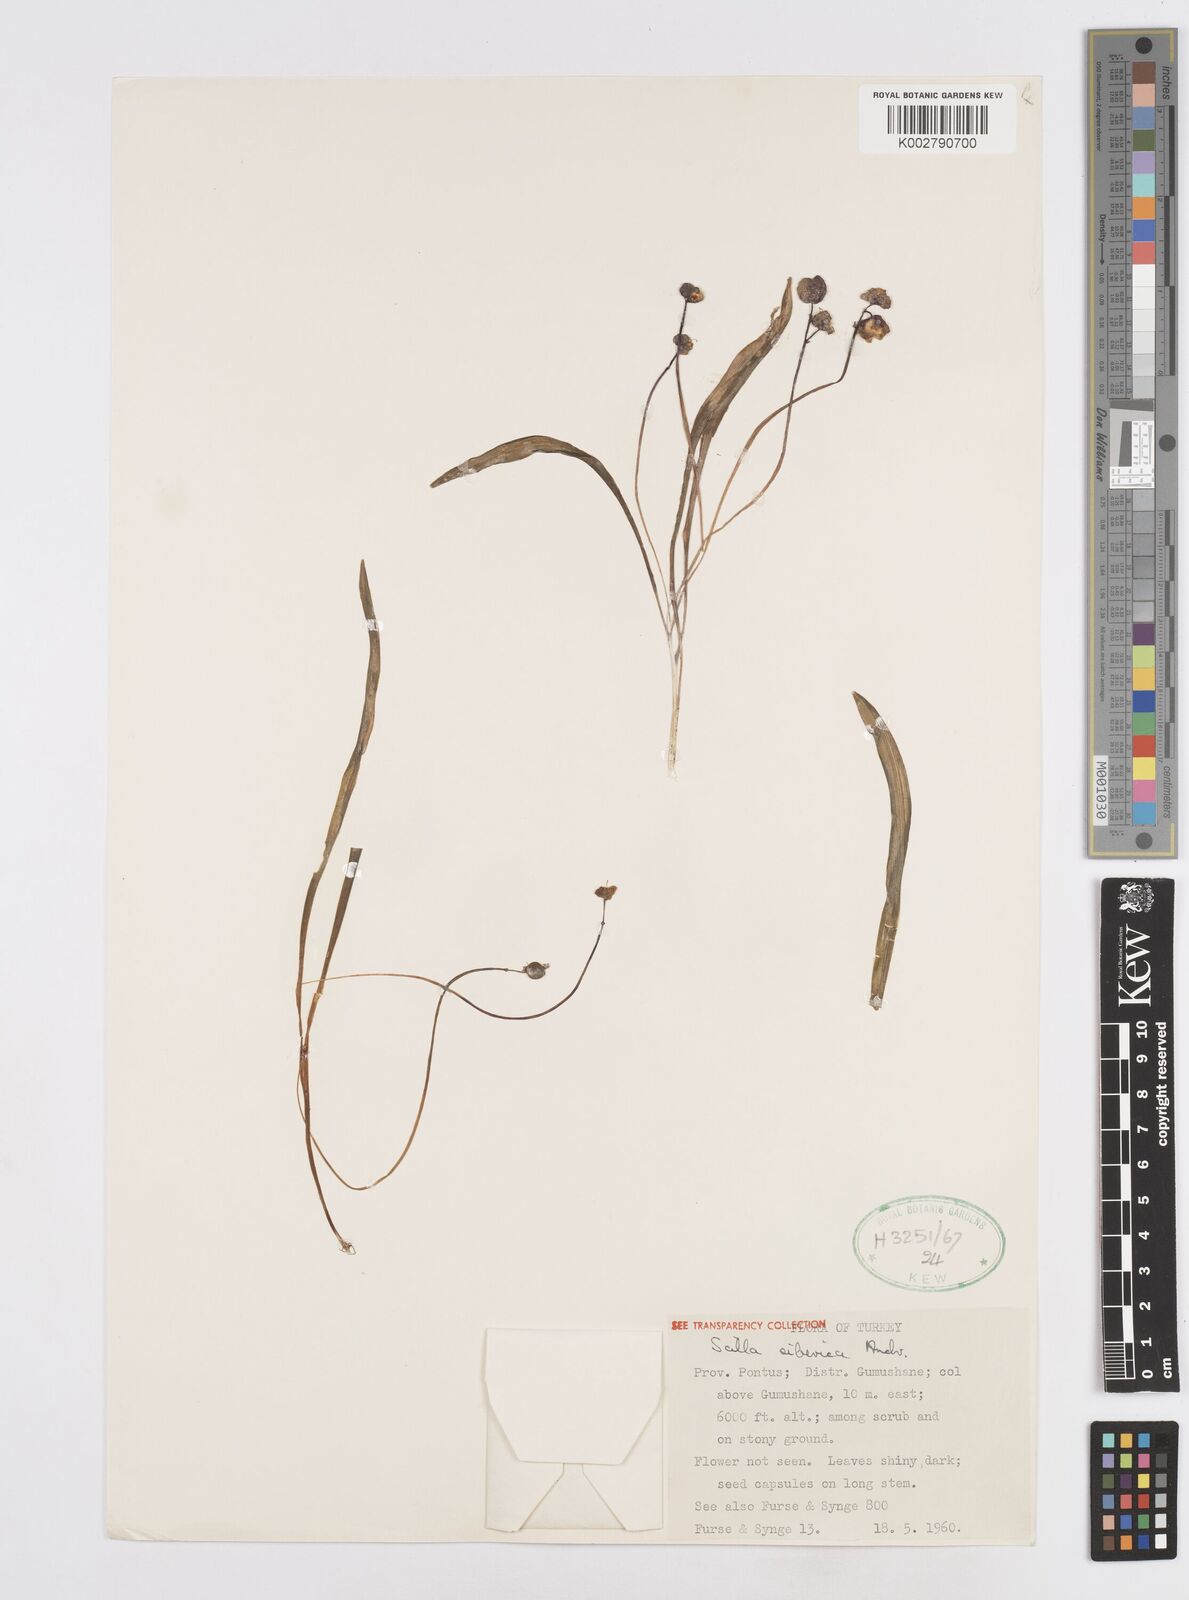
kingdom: Plantae
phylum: Tracheophyta
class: Liliopsida
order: Asparagales
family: Asparagaceae
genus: Scilla
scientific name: Scilla siberica
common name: Siberian squill
